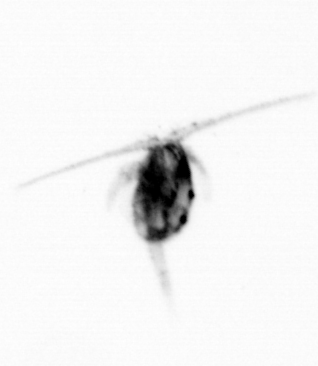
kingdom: Animalia
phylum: Arthropoda
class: Copepoda
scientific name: Copepoda
